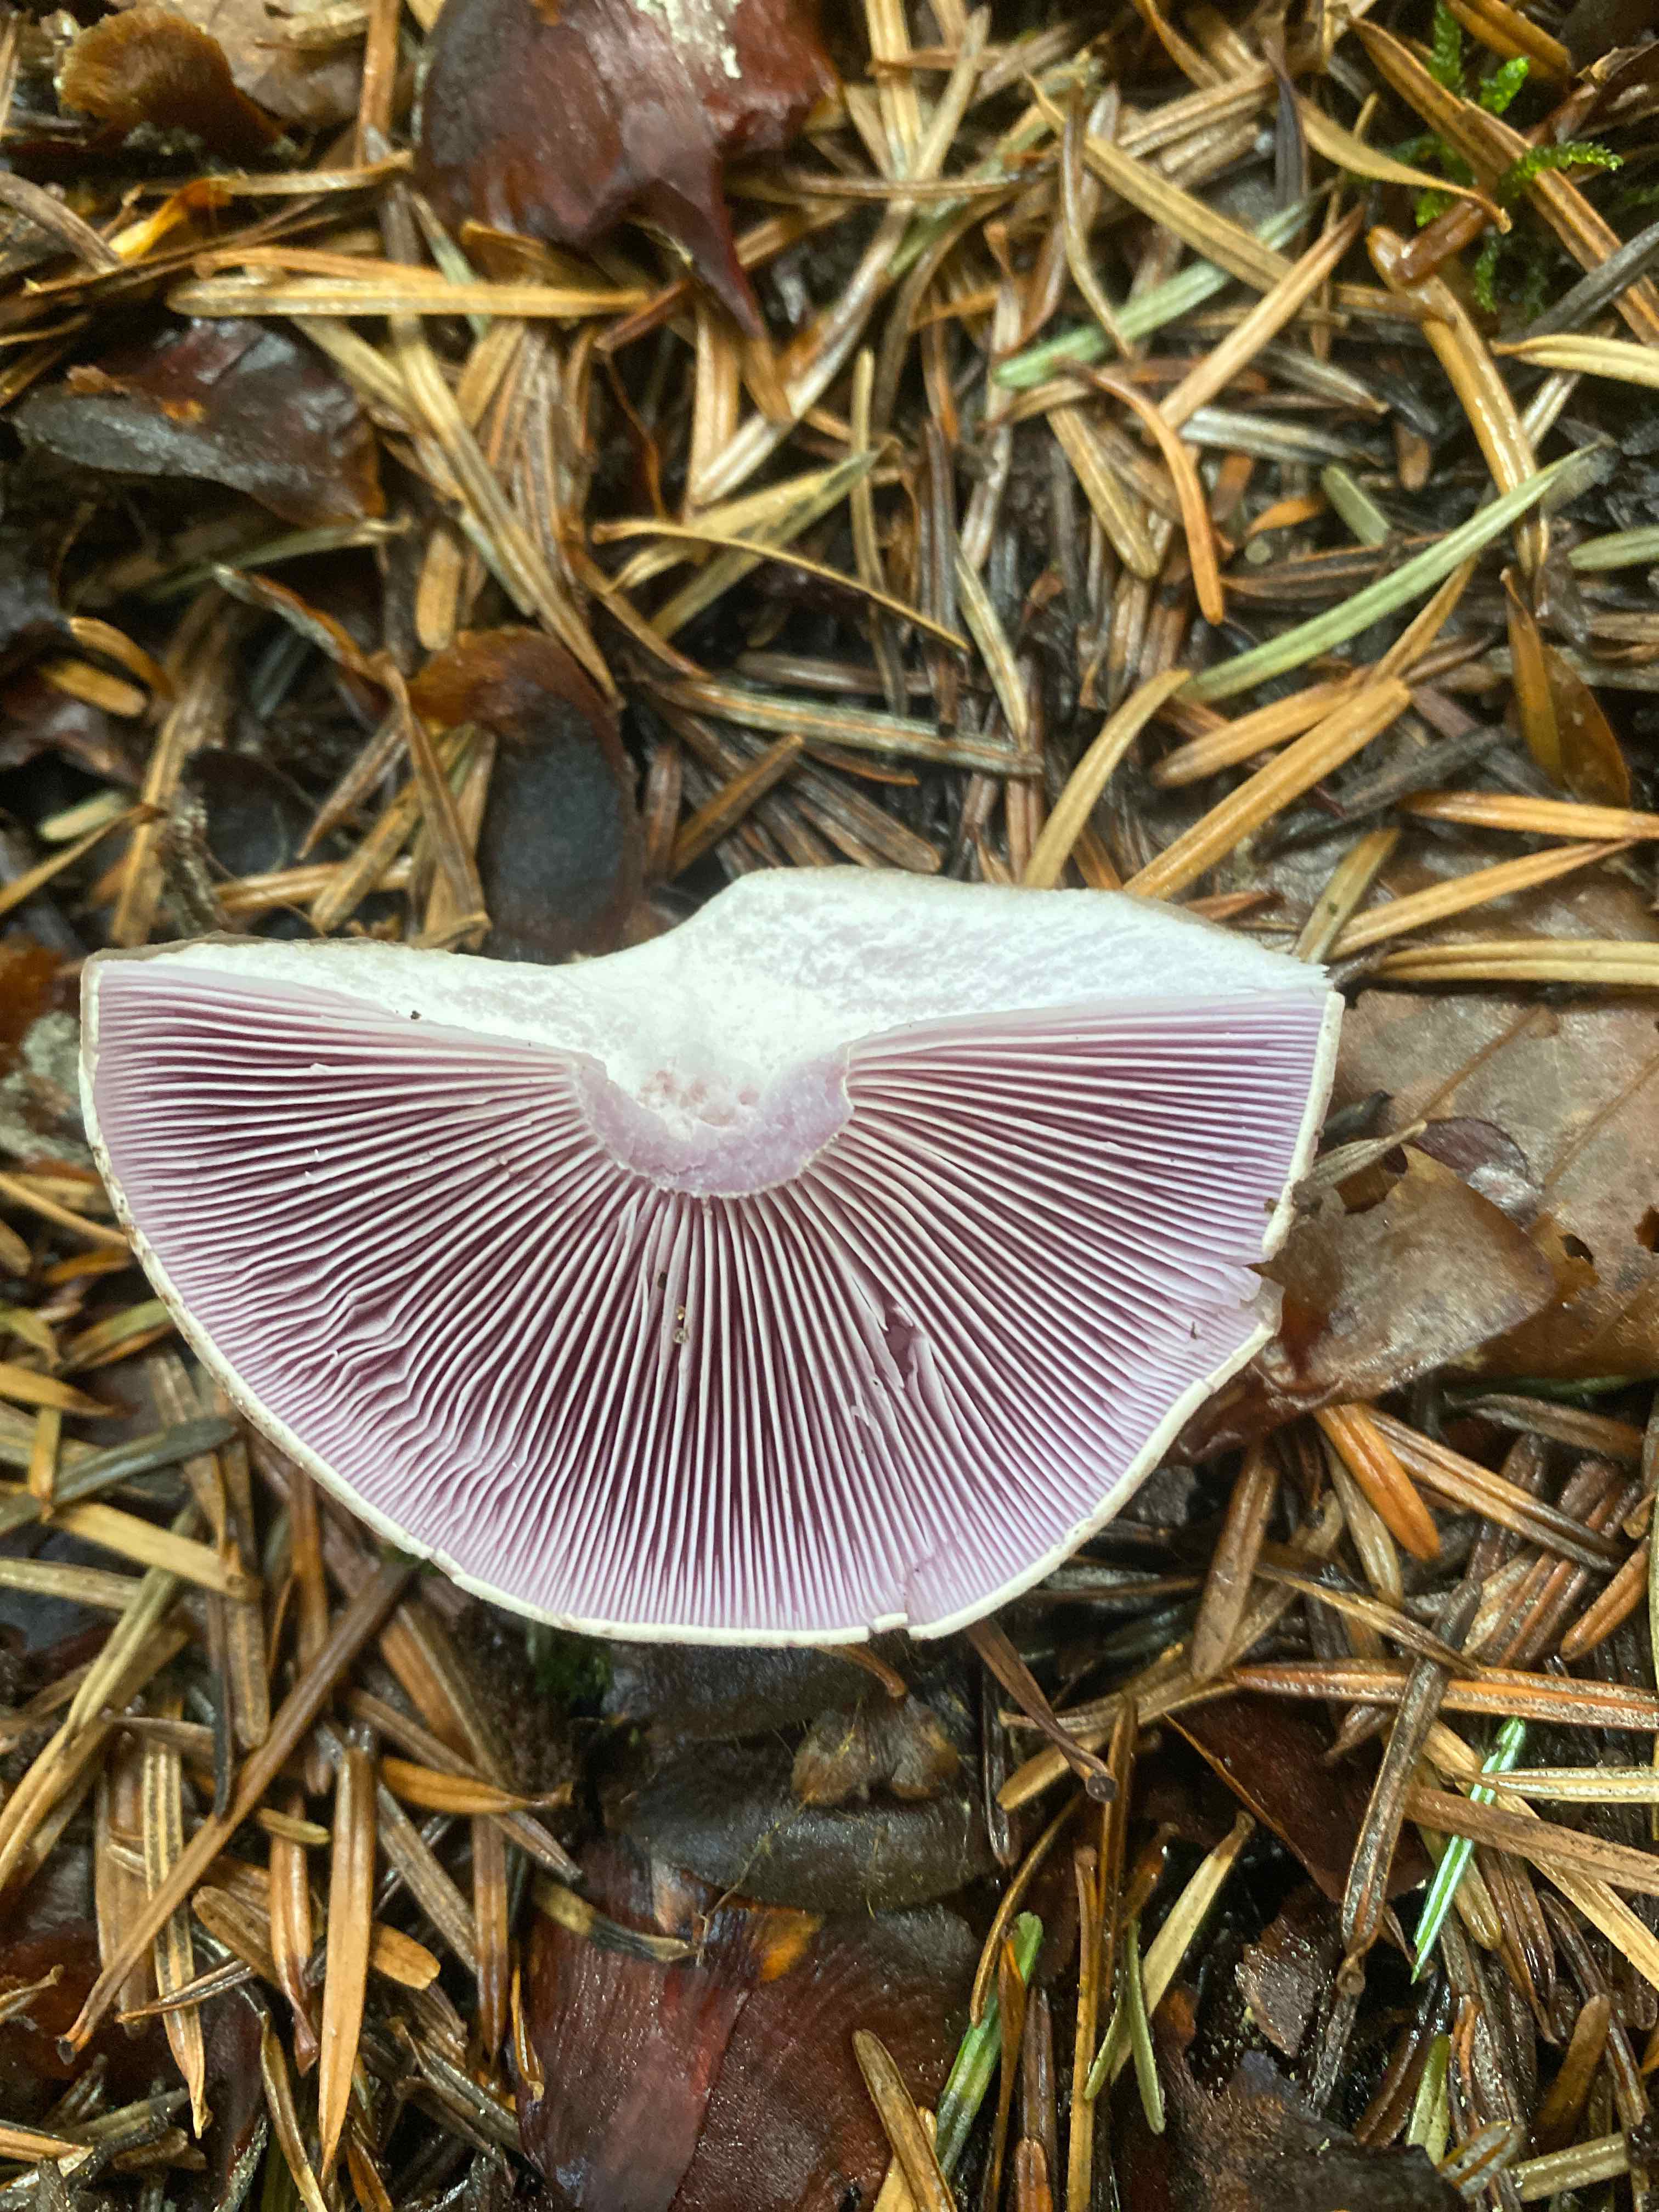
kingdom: Fungi
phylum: Basidiomycota
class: Agaricomycetes
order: Agaricales
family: Tricholomataceae
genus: Lepista
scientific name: Lepista
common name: hekseringshat
